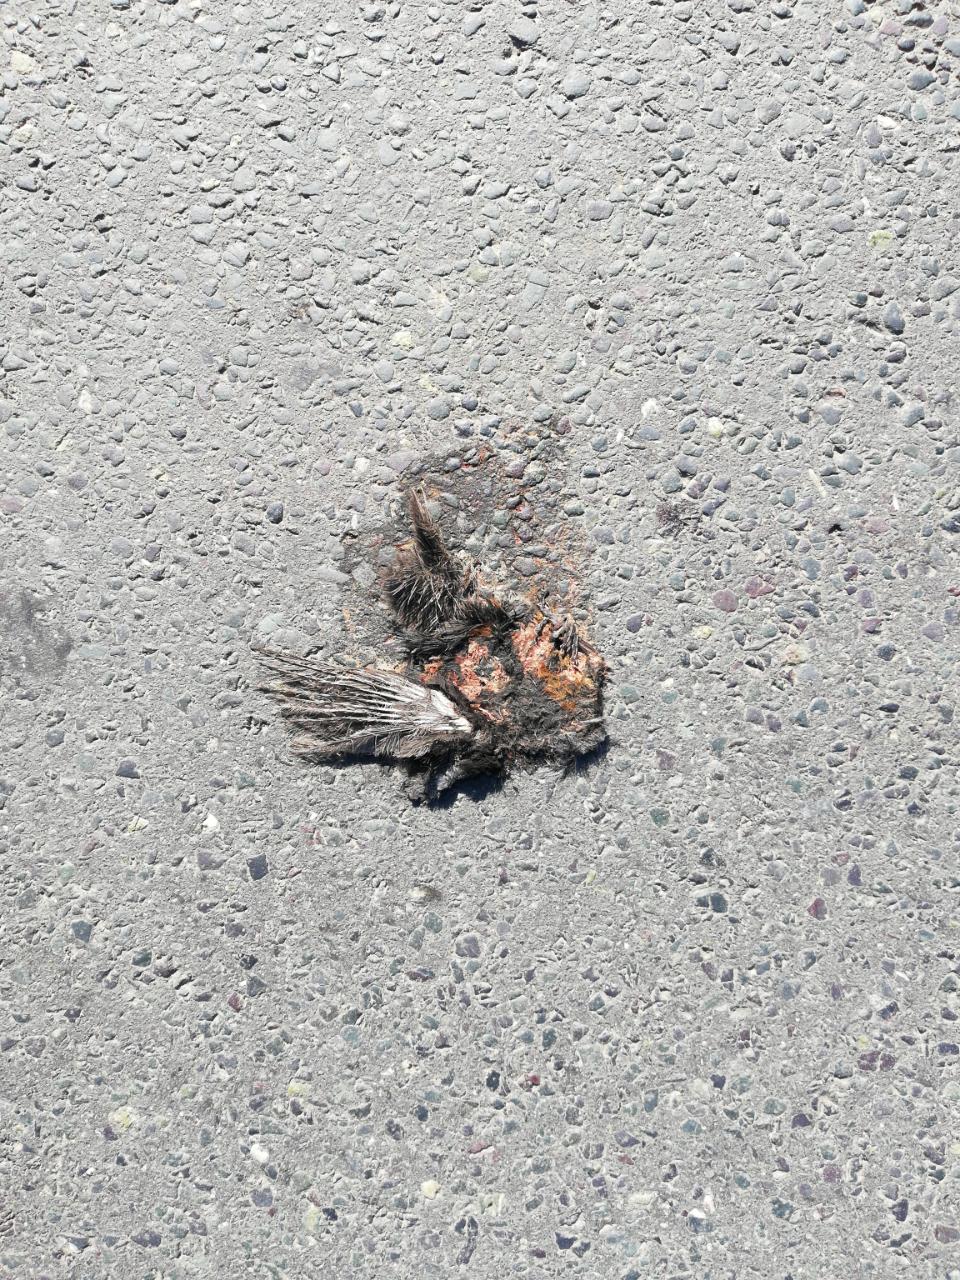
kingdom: Animalia
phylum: Chordata
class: Aves
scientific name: Aves
